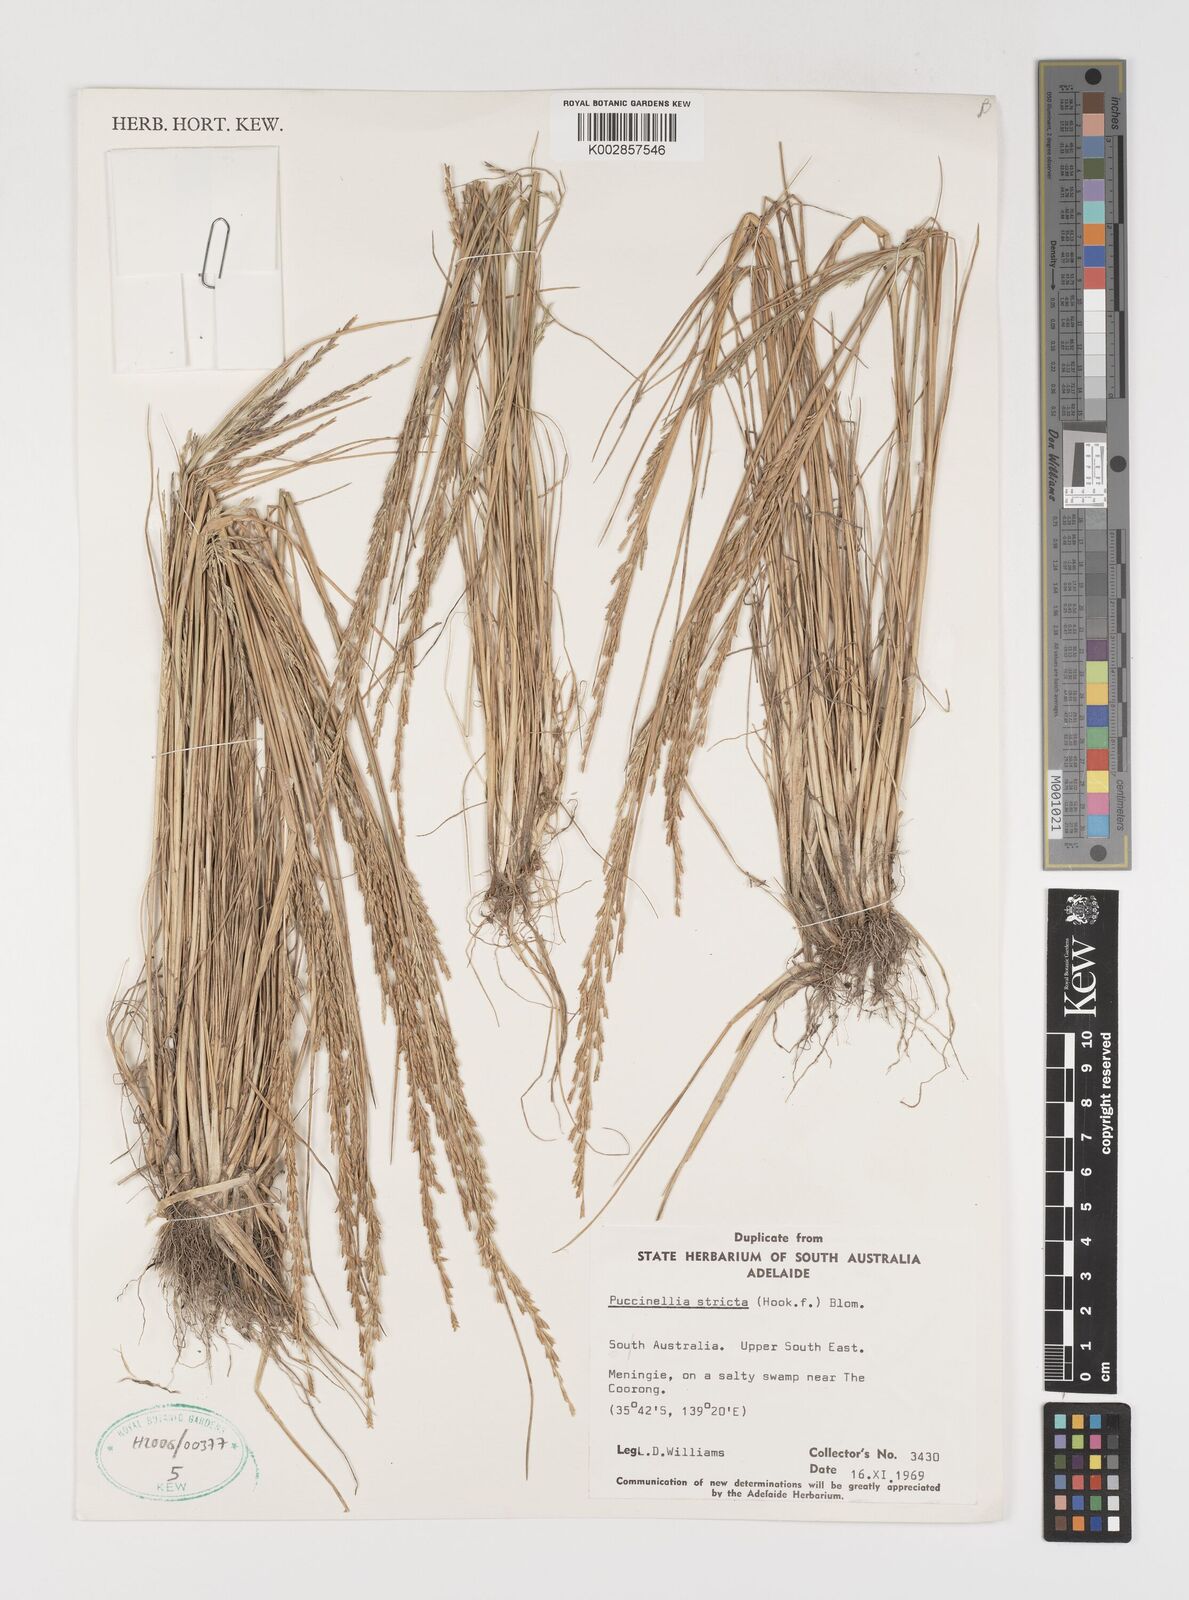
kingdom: Plantae
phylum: Tracheophyta
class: Liliopsida
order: Poales
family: Poaceae
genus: Puccinellia
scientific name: Puccinellia stricta
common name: Australian saltmarsh grass
